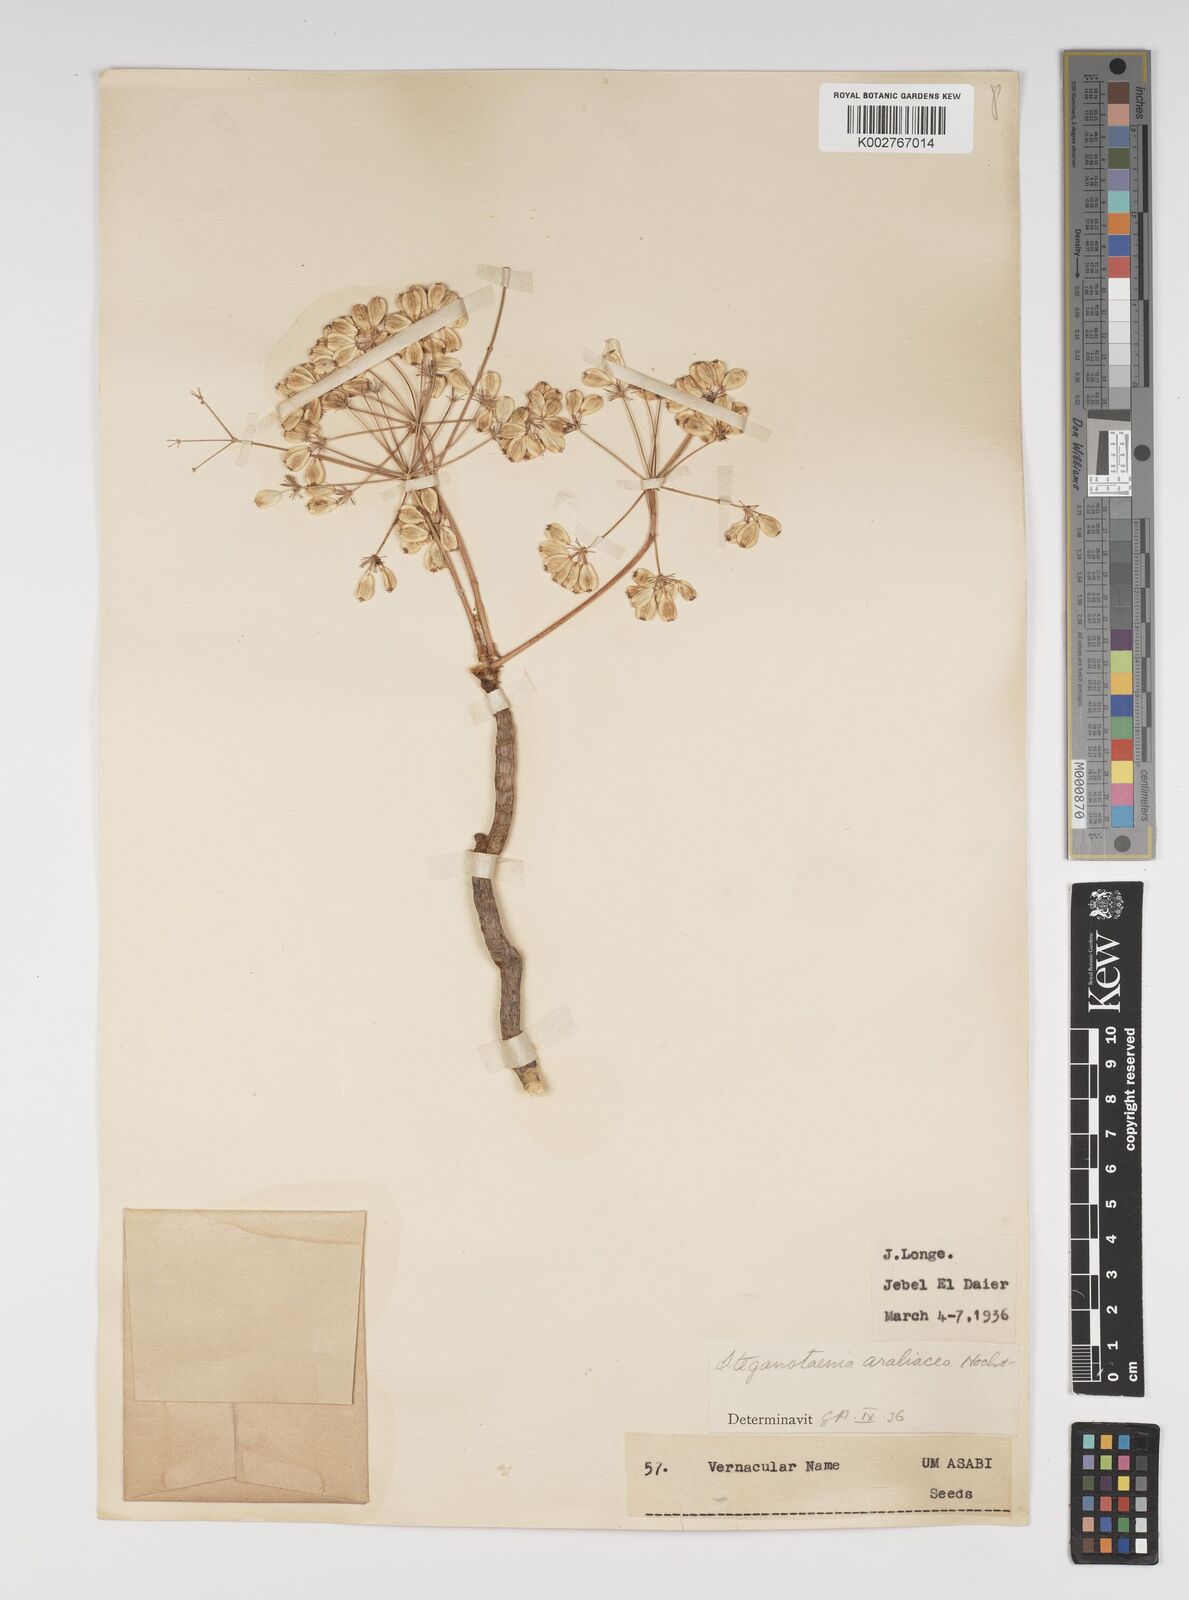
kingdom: Plantae
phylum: Tracheophyta
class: Magnoliopsida
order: Apiales
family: Apiaceae
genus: Steganotaenia
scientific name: Steganotaenia
